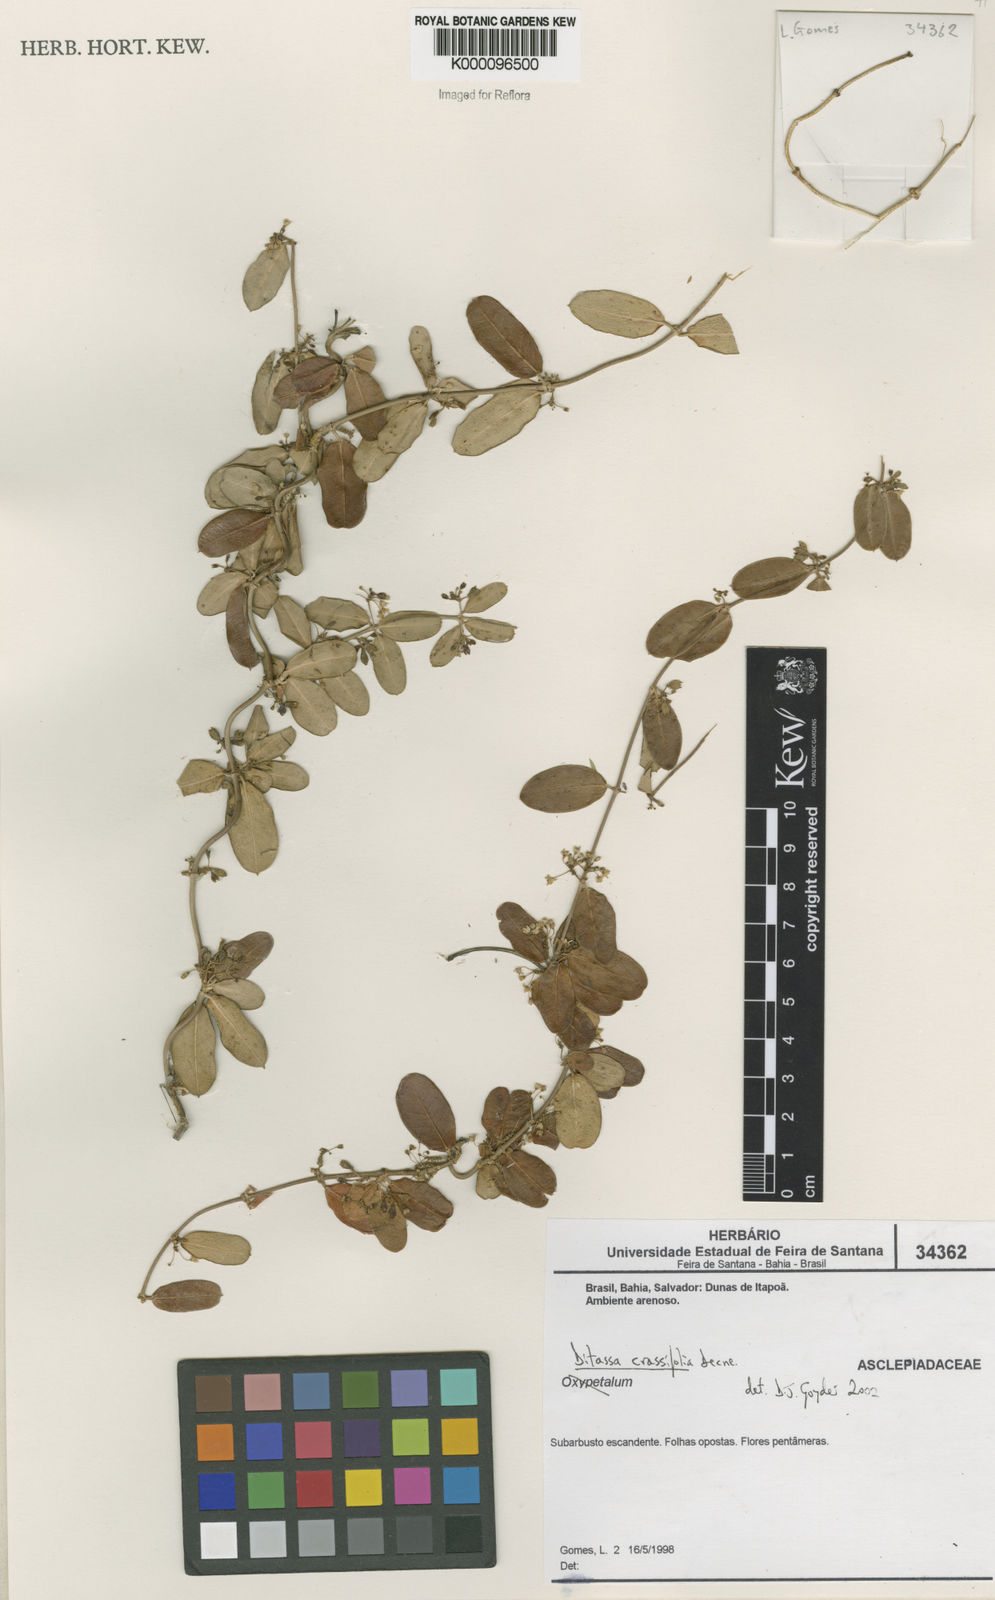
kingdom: Plantae
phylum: Tracheophyta
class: Magnoliopsida
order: Gentianales
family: Apocynaceae
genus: Ditassa
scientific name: Ditassa crassifolia
